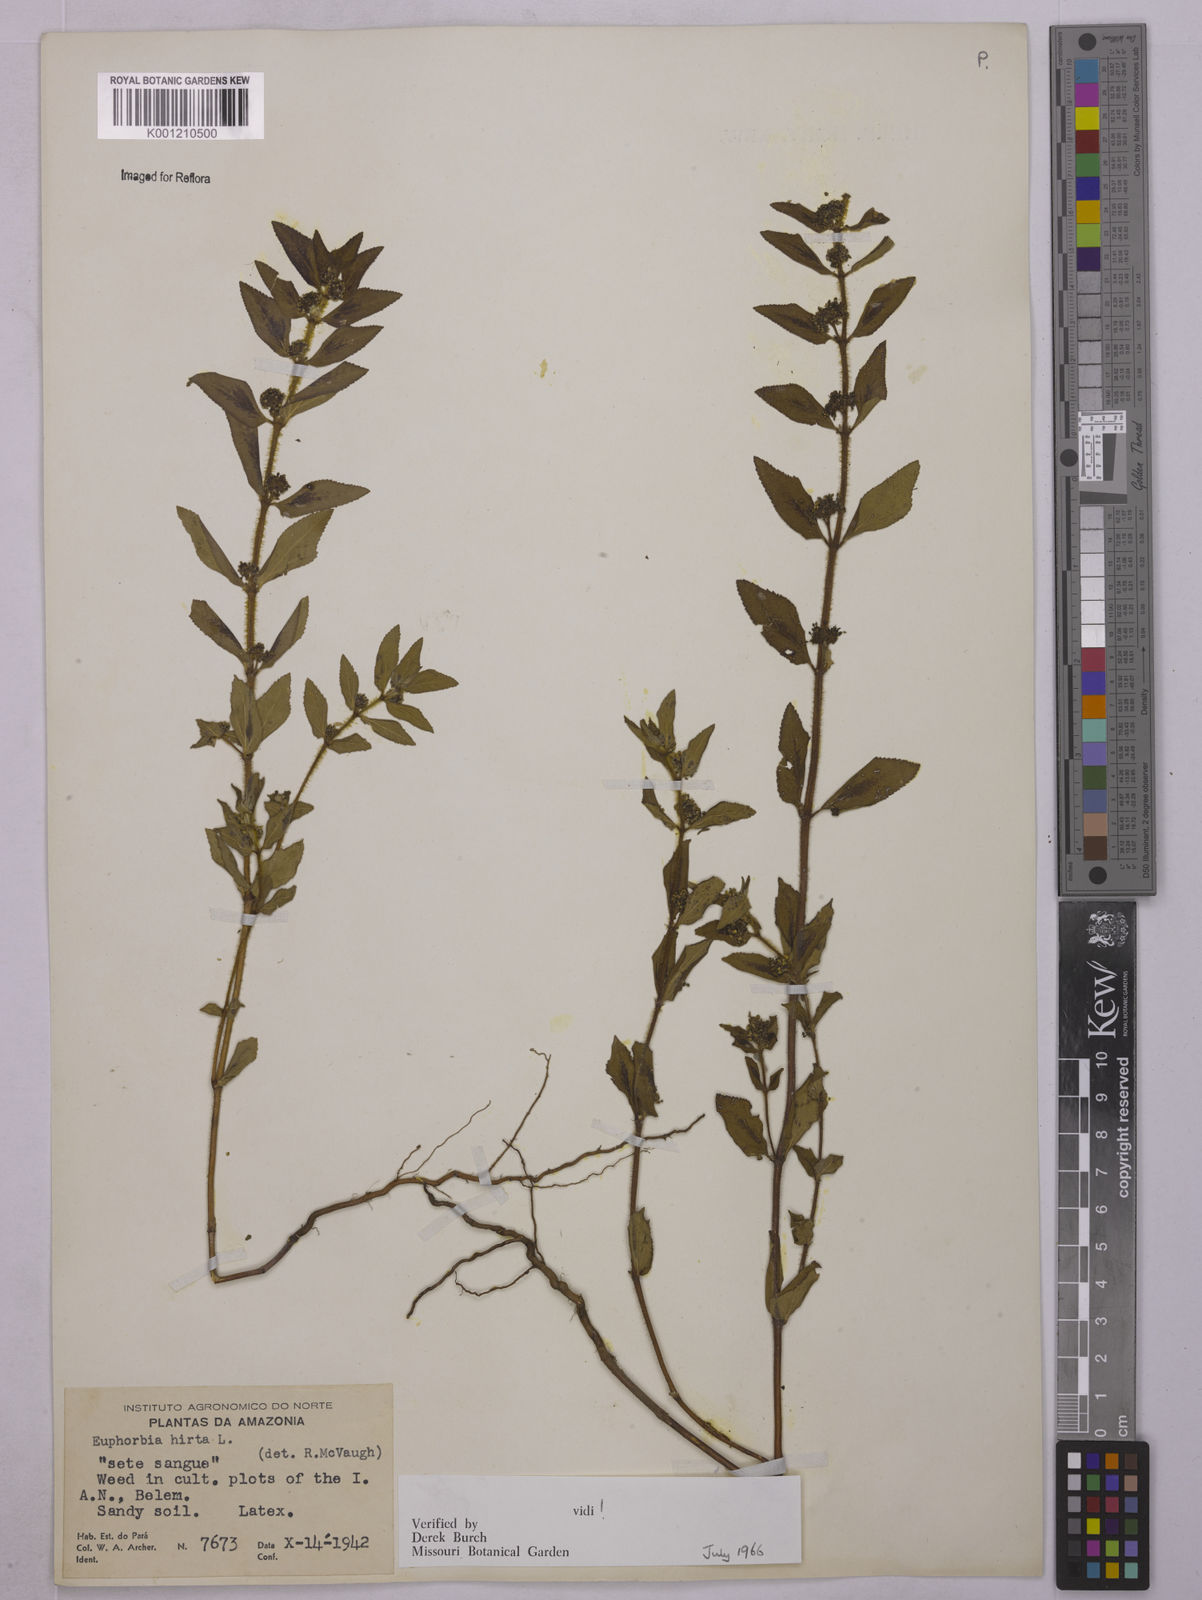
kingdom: Plantae
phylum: Tracheophyta
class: Magnoliopsida
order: Malpighiales
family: Euphorbiaceae
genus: Euphorbia
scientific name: Euphorbia hirta
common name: Pillpod sandmat
